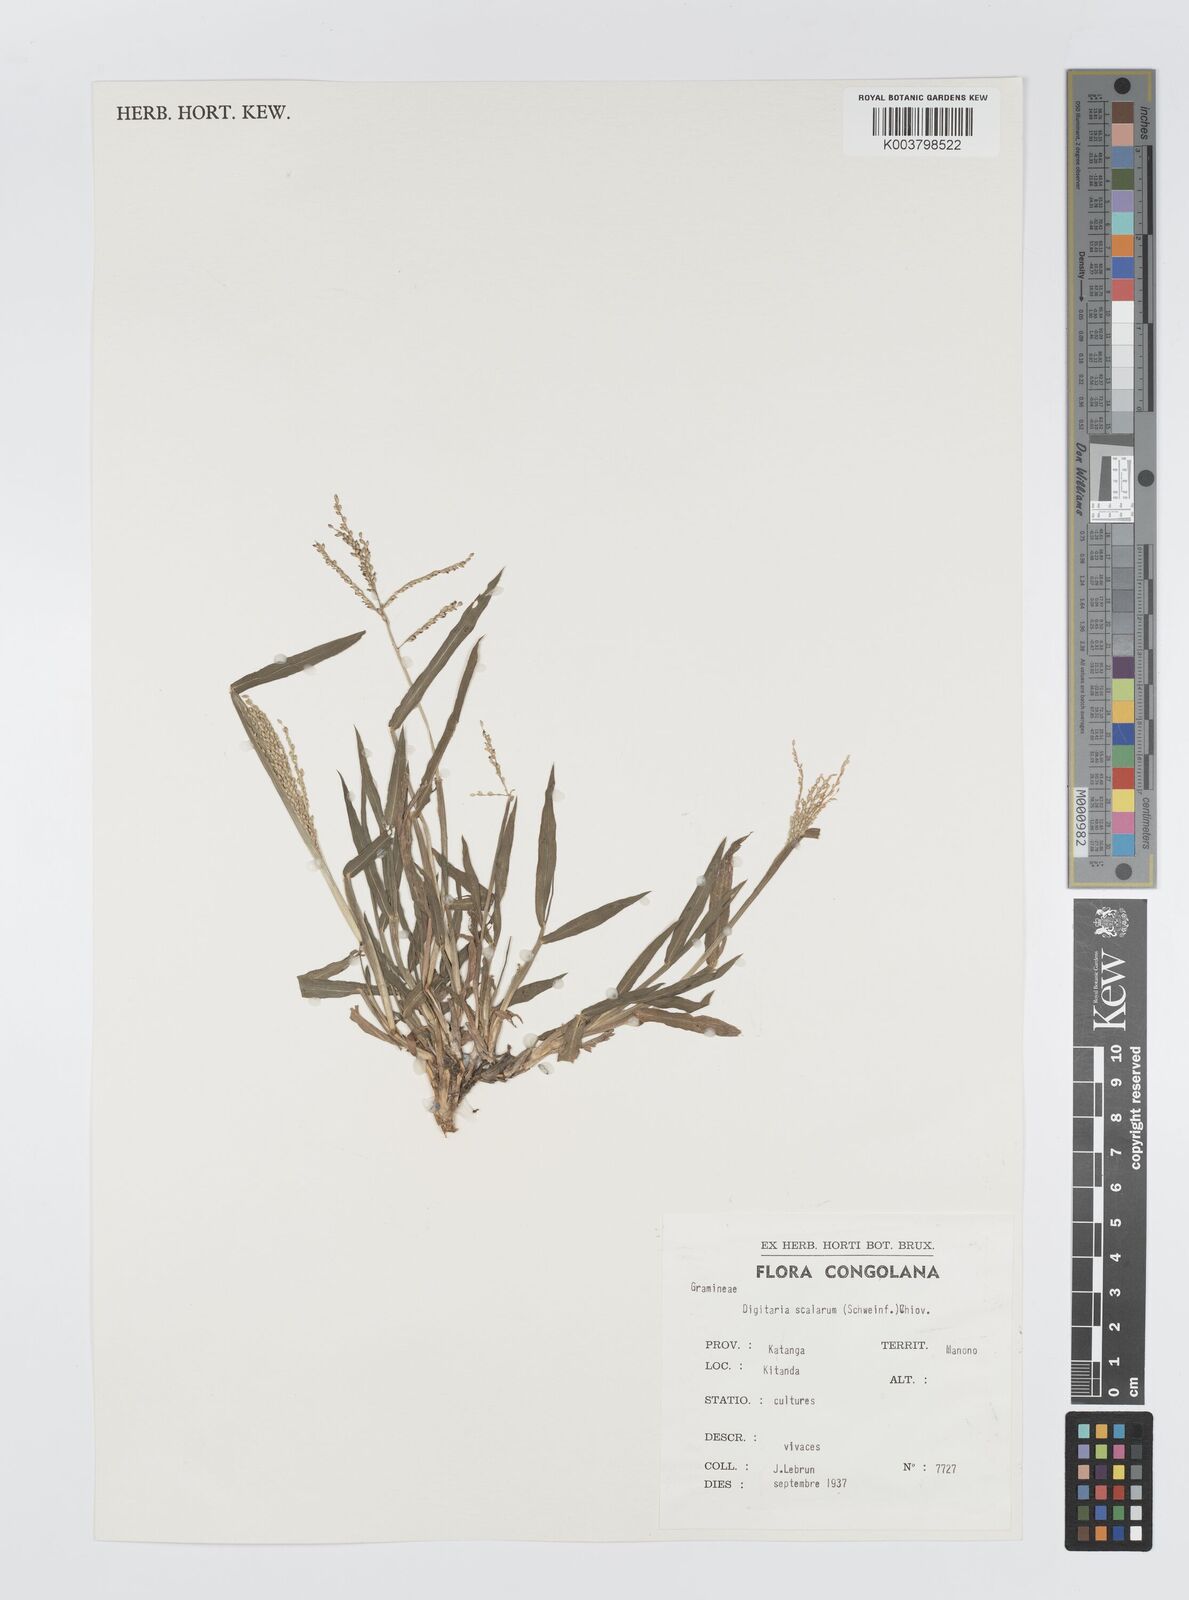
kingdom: Plantae
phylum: Tracheophyta
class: Liliopsida
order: Poales
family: Poaceae
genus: Digitaria
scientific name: Digitaria abyssinica
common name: African couchgrass
